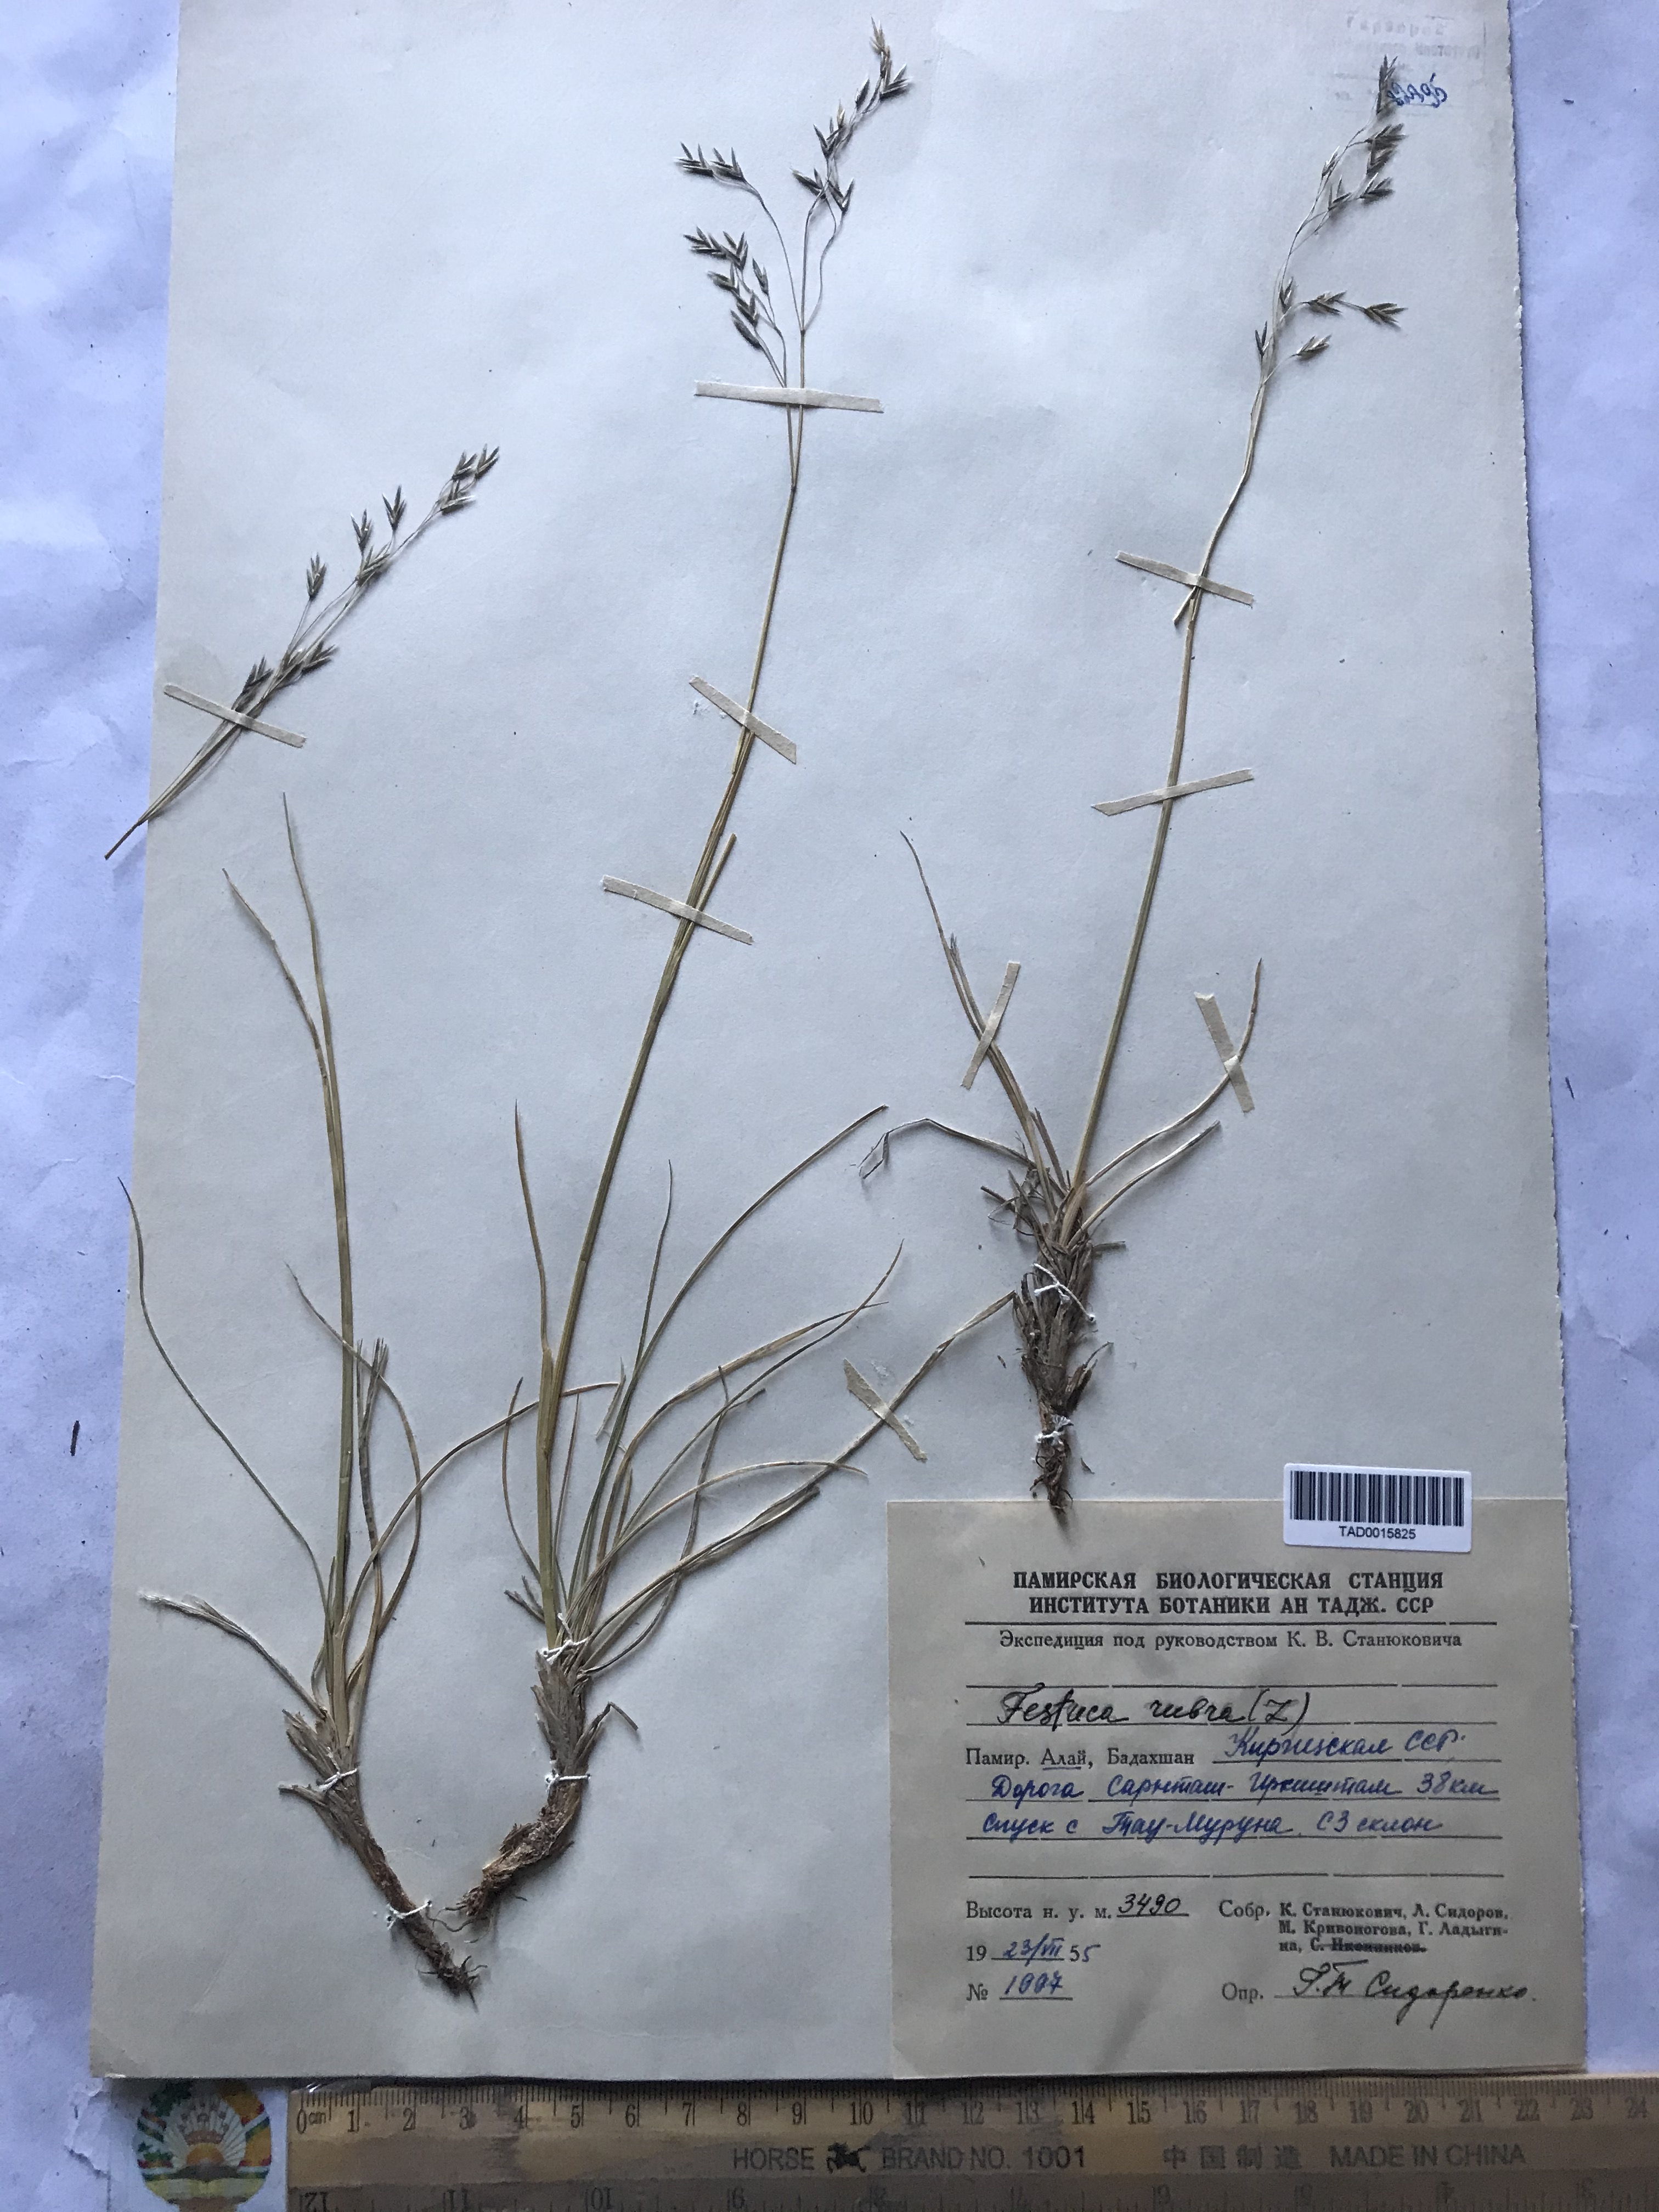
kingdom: Plantae
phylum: Tracheophyta
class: Liliopsida
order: Poales
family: Poaceae
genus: Festuca
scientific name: Festuca rubra
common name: Red fescue
